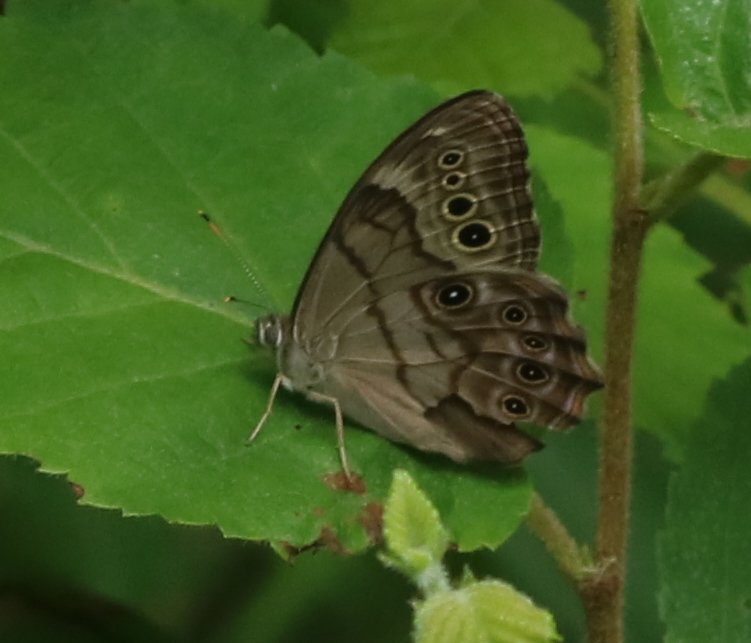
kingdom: Animalia
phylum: Arthropoda
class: Insecta
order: Lepidoptera
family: Nymphalidae
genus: Lethe
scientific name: Lethe anthedon
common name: Northern Pearly-Eye
